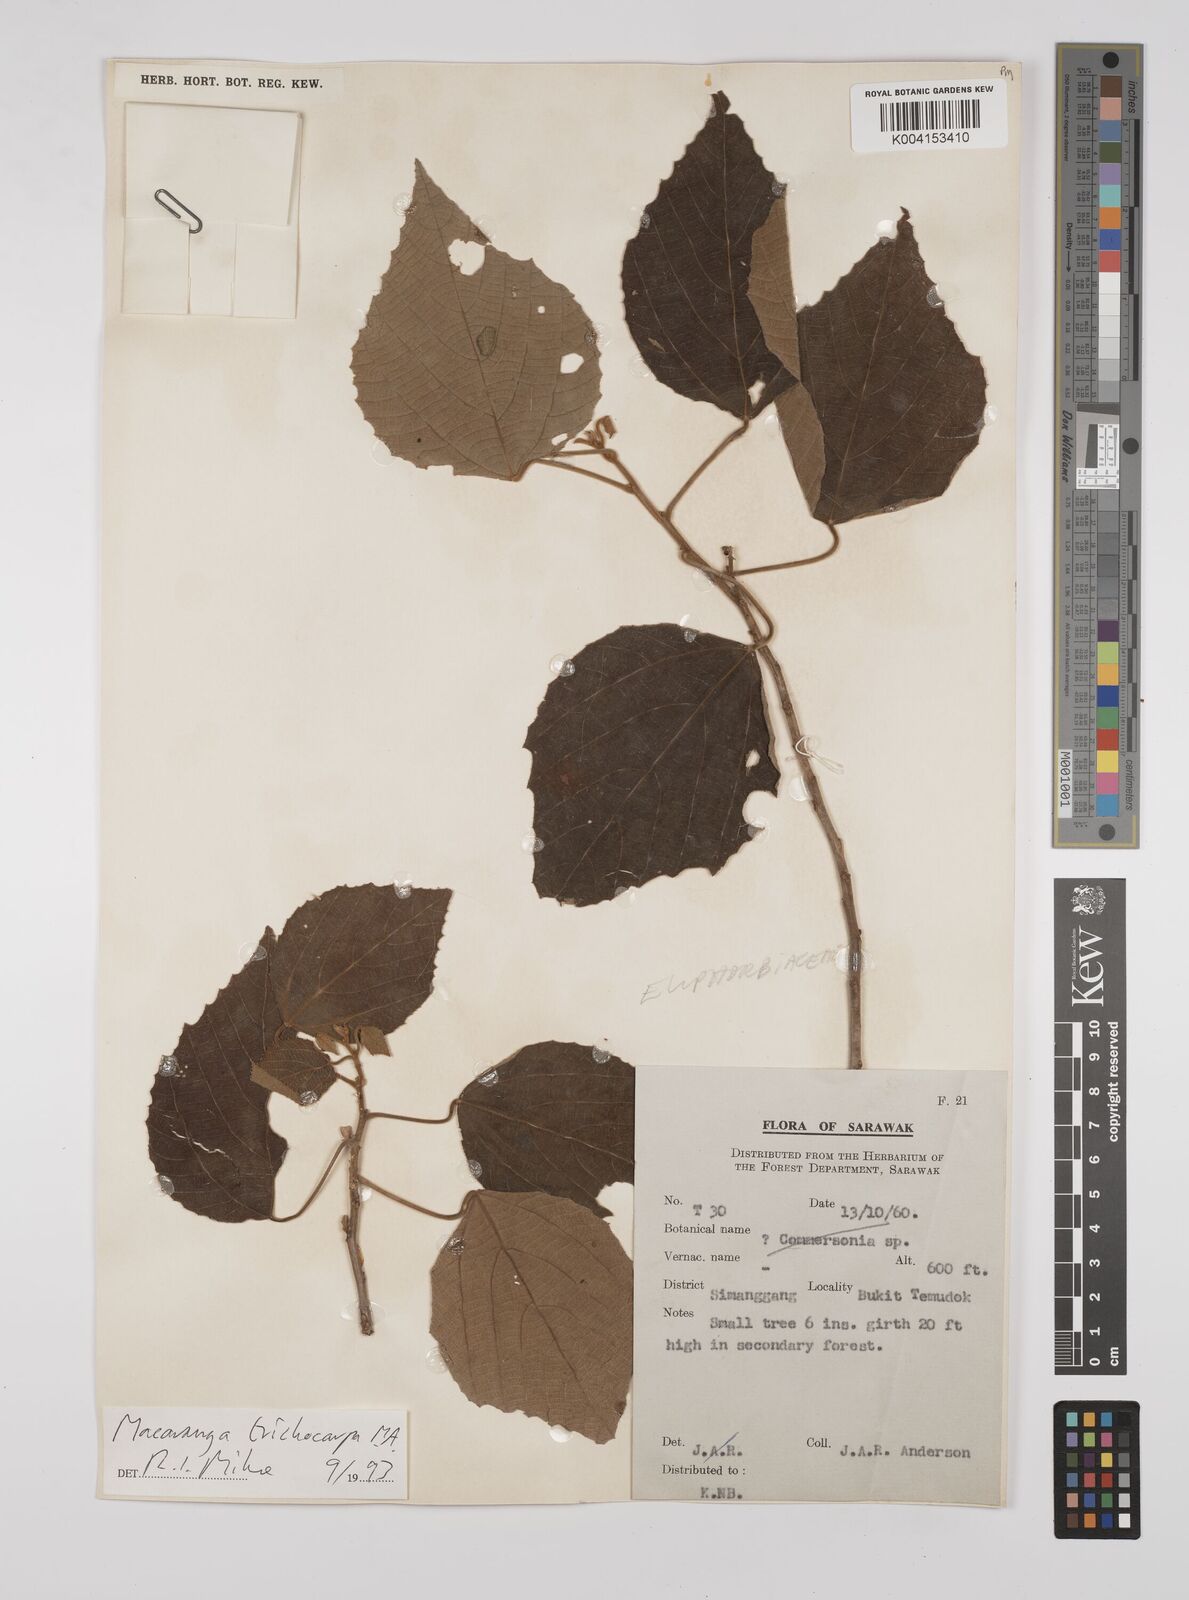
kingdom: Plantae
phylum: Tracheophyta
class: Magnoliopsida
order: Malpighiales
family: Euphorbiaceae
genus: Macaranga
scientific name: Macaranga trichocarpa
